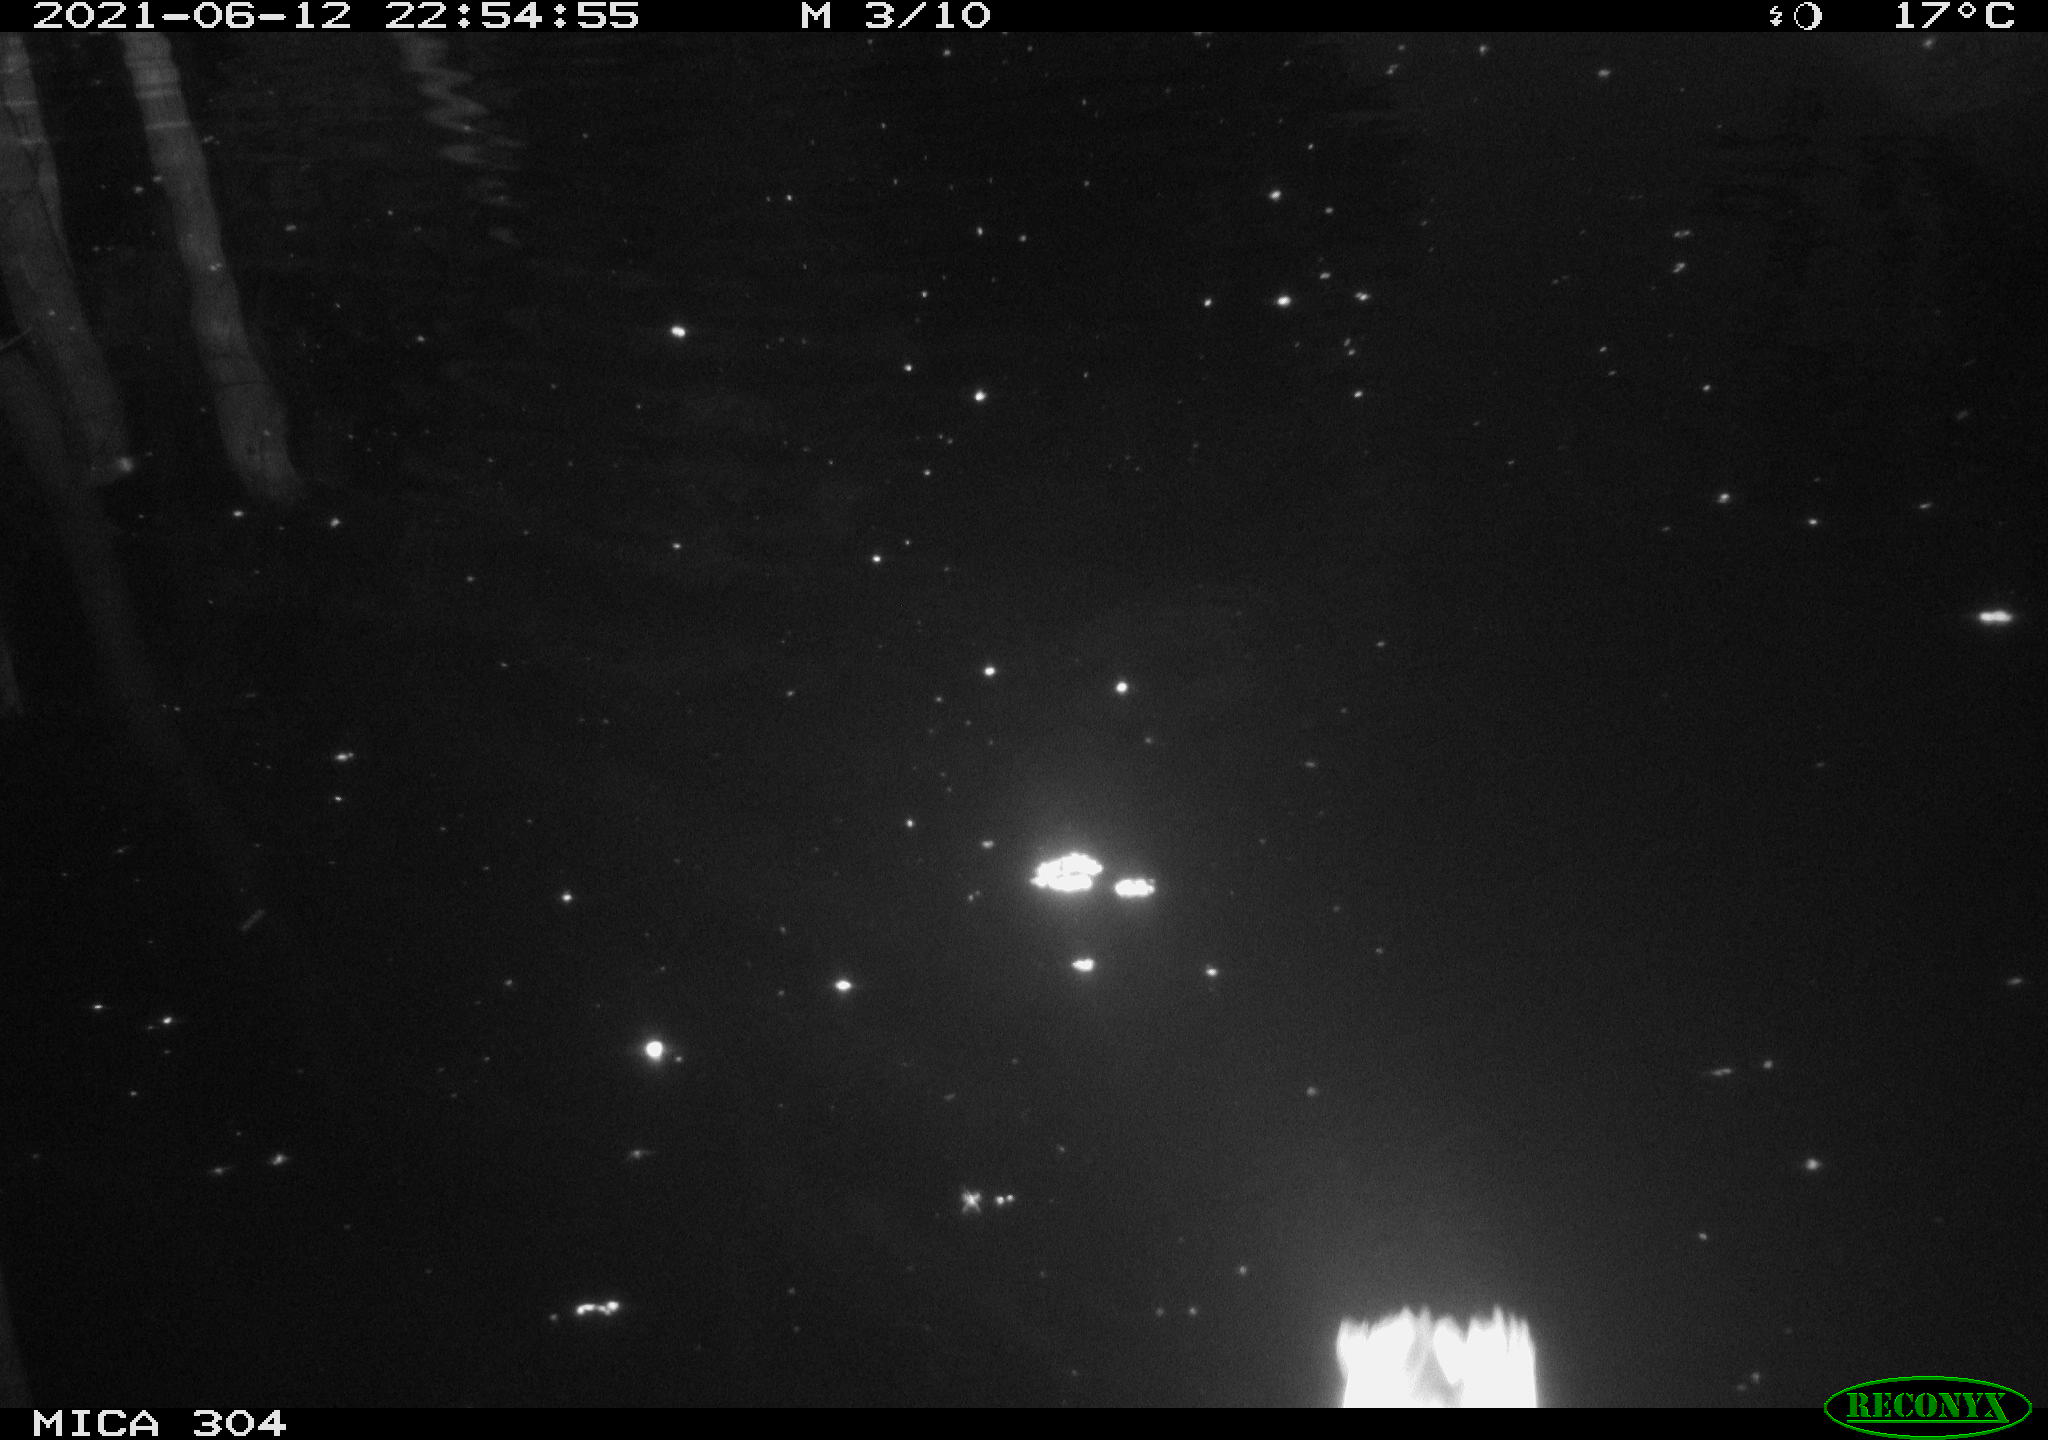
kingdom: Animalia
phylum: Chordata
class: Aves
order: Anseriformes
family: Anatidae
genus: Anas
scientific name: Anas platyrhynchos
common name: Mallard
